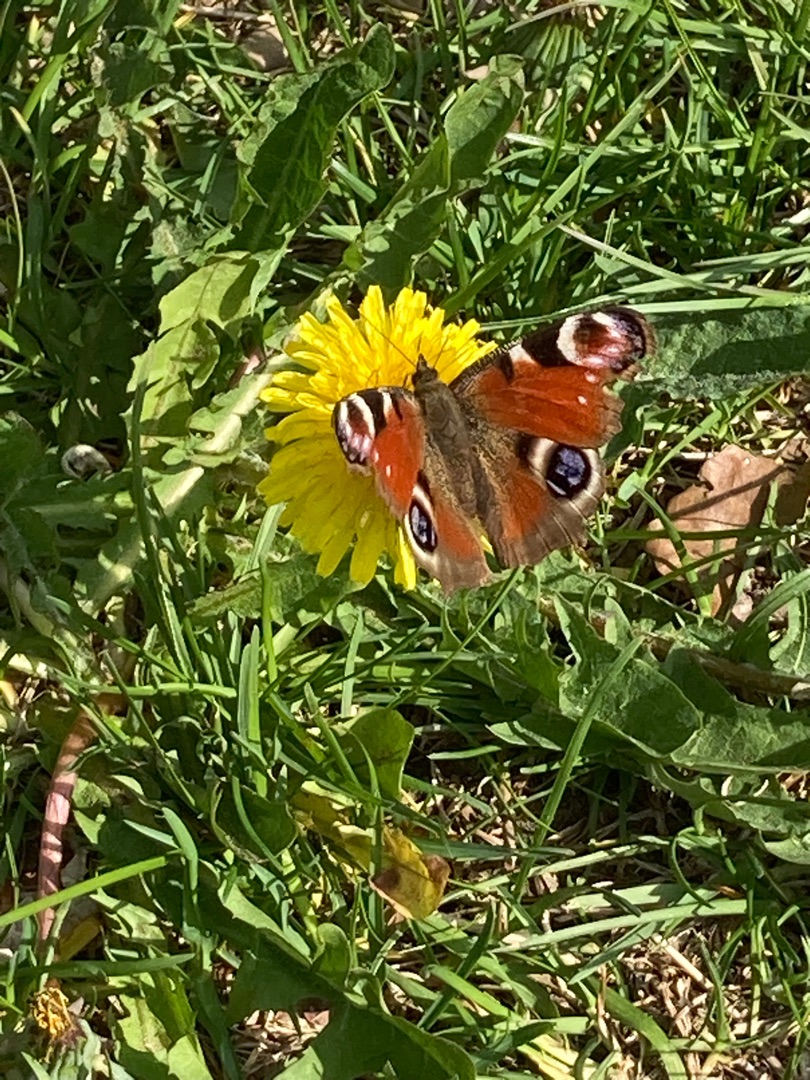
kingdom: Animalia
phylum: Arthropoda
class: Insecta
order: Lepidoptera
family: Nymphalidae
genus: Aglais
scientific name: Aglais io
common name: Dagpåfugleøje
